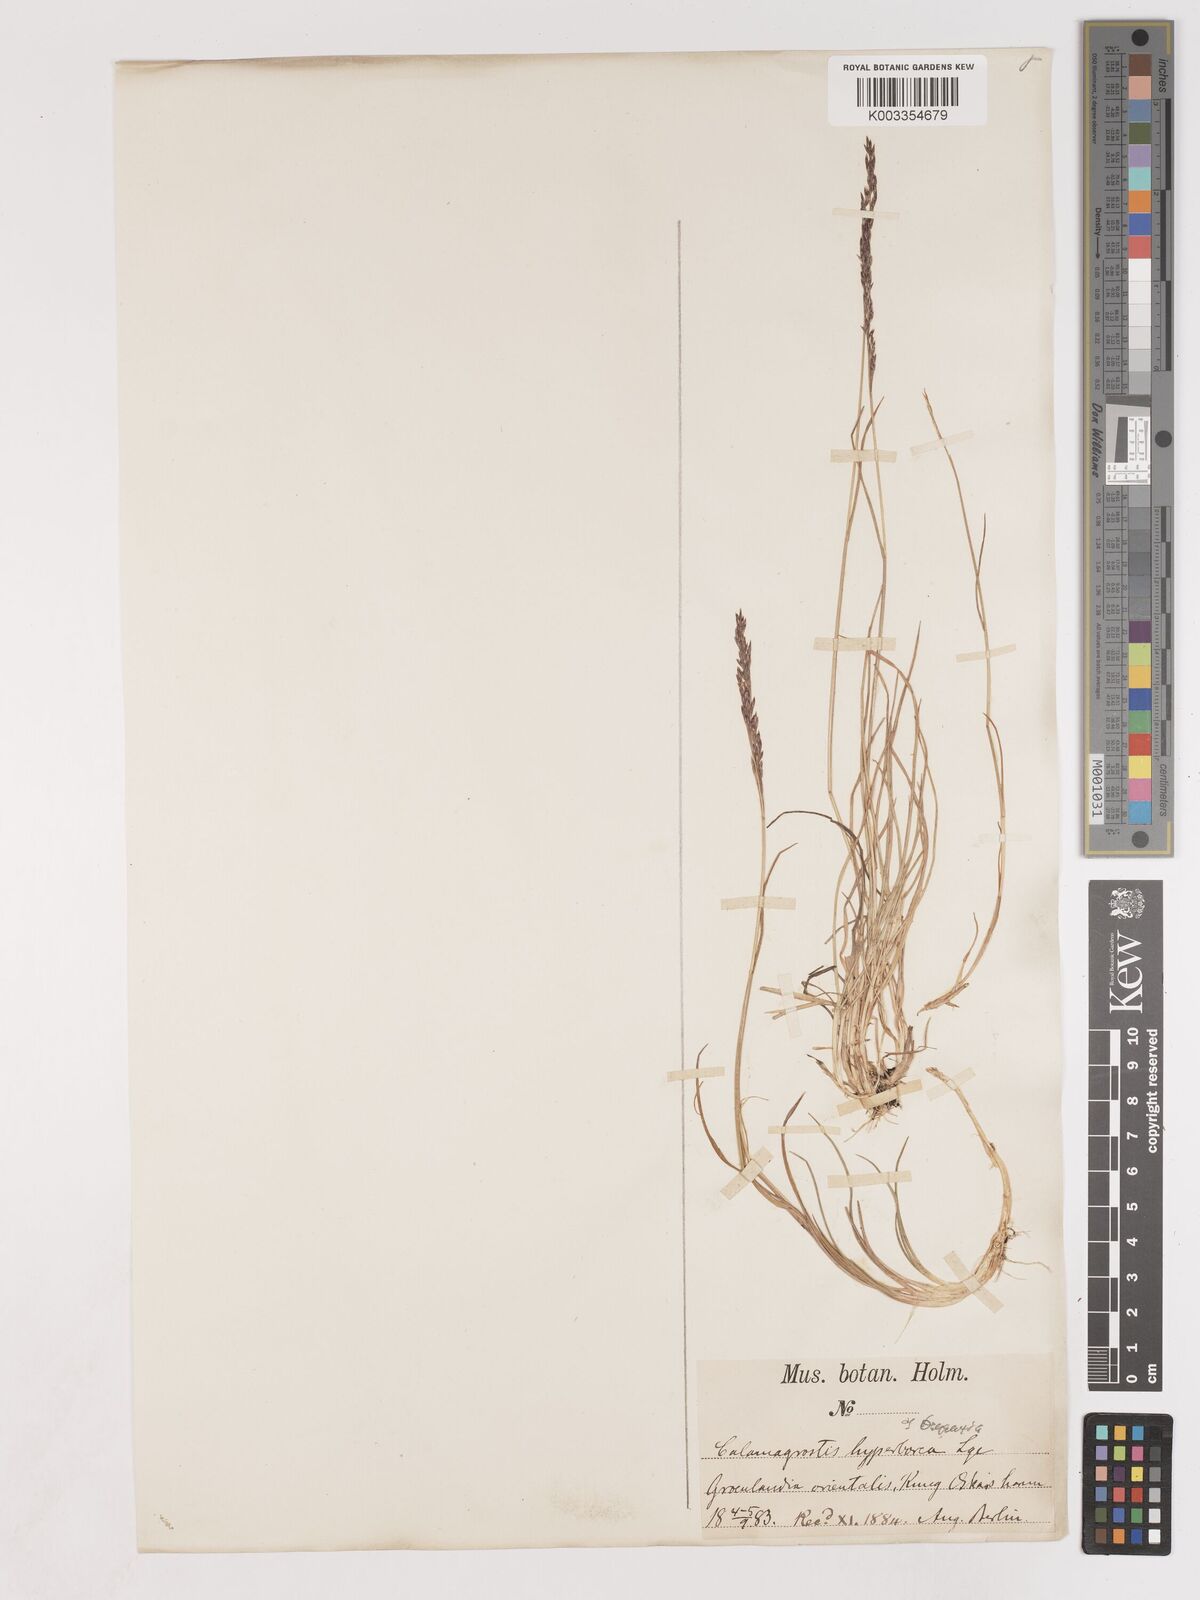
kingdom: Plantae
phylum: Tracheophyta
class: Liliopsida
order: Poales
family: Poaceae
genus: Cinnagrostis
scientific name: Cinnagrostis recta
